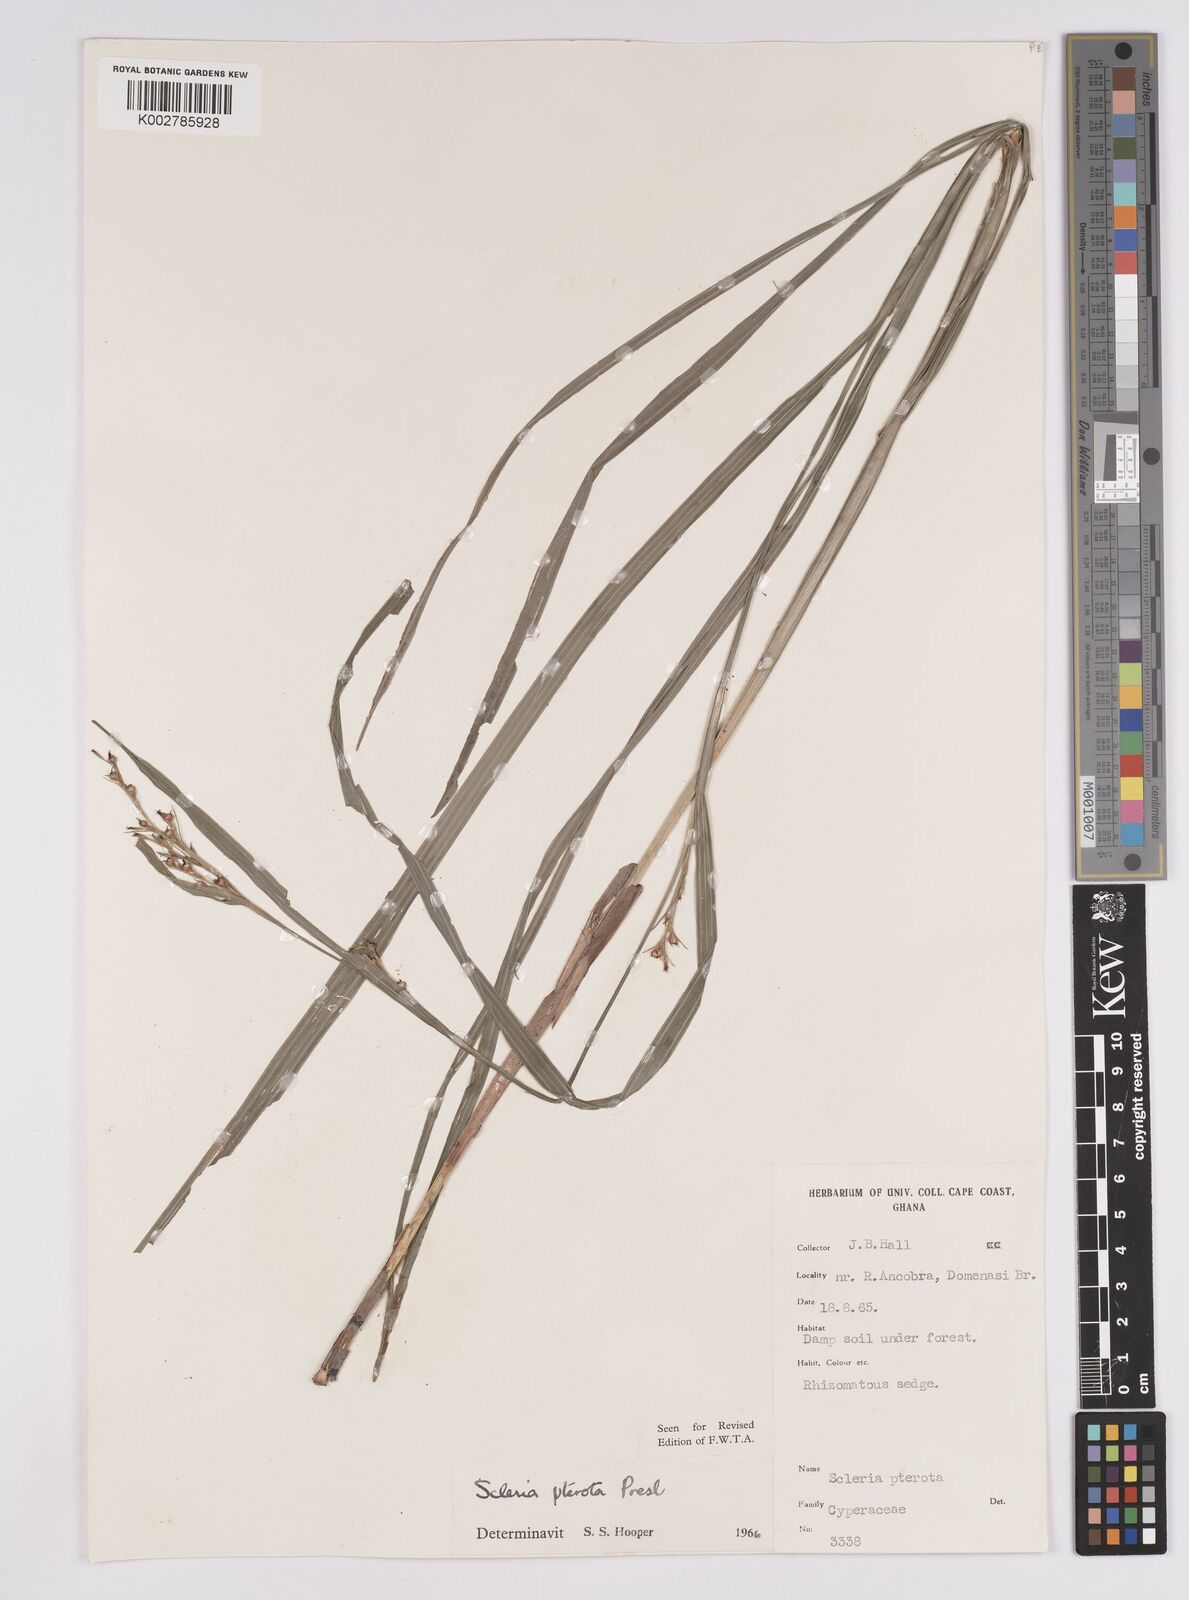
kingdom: Plantae
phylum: Tracheophyta
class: Liliopsida
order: Poales
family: Cyperaceae
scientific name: Cyperaceae
